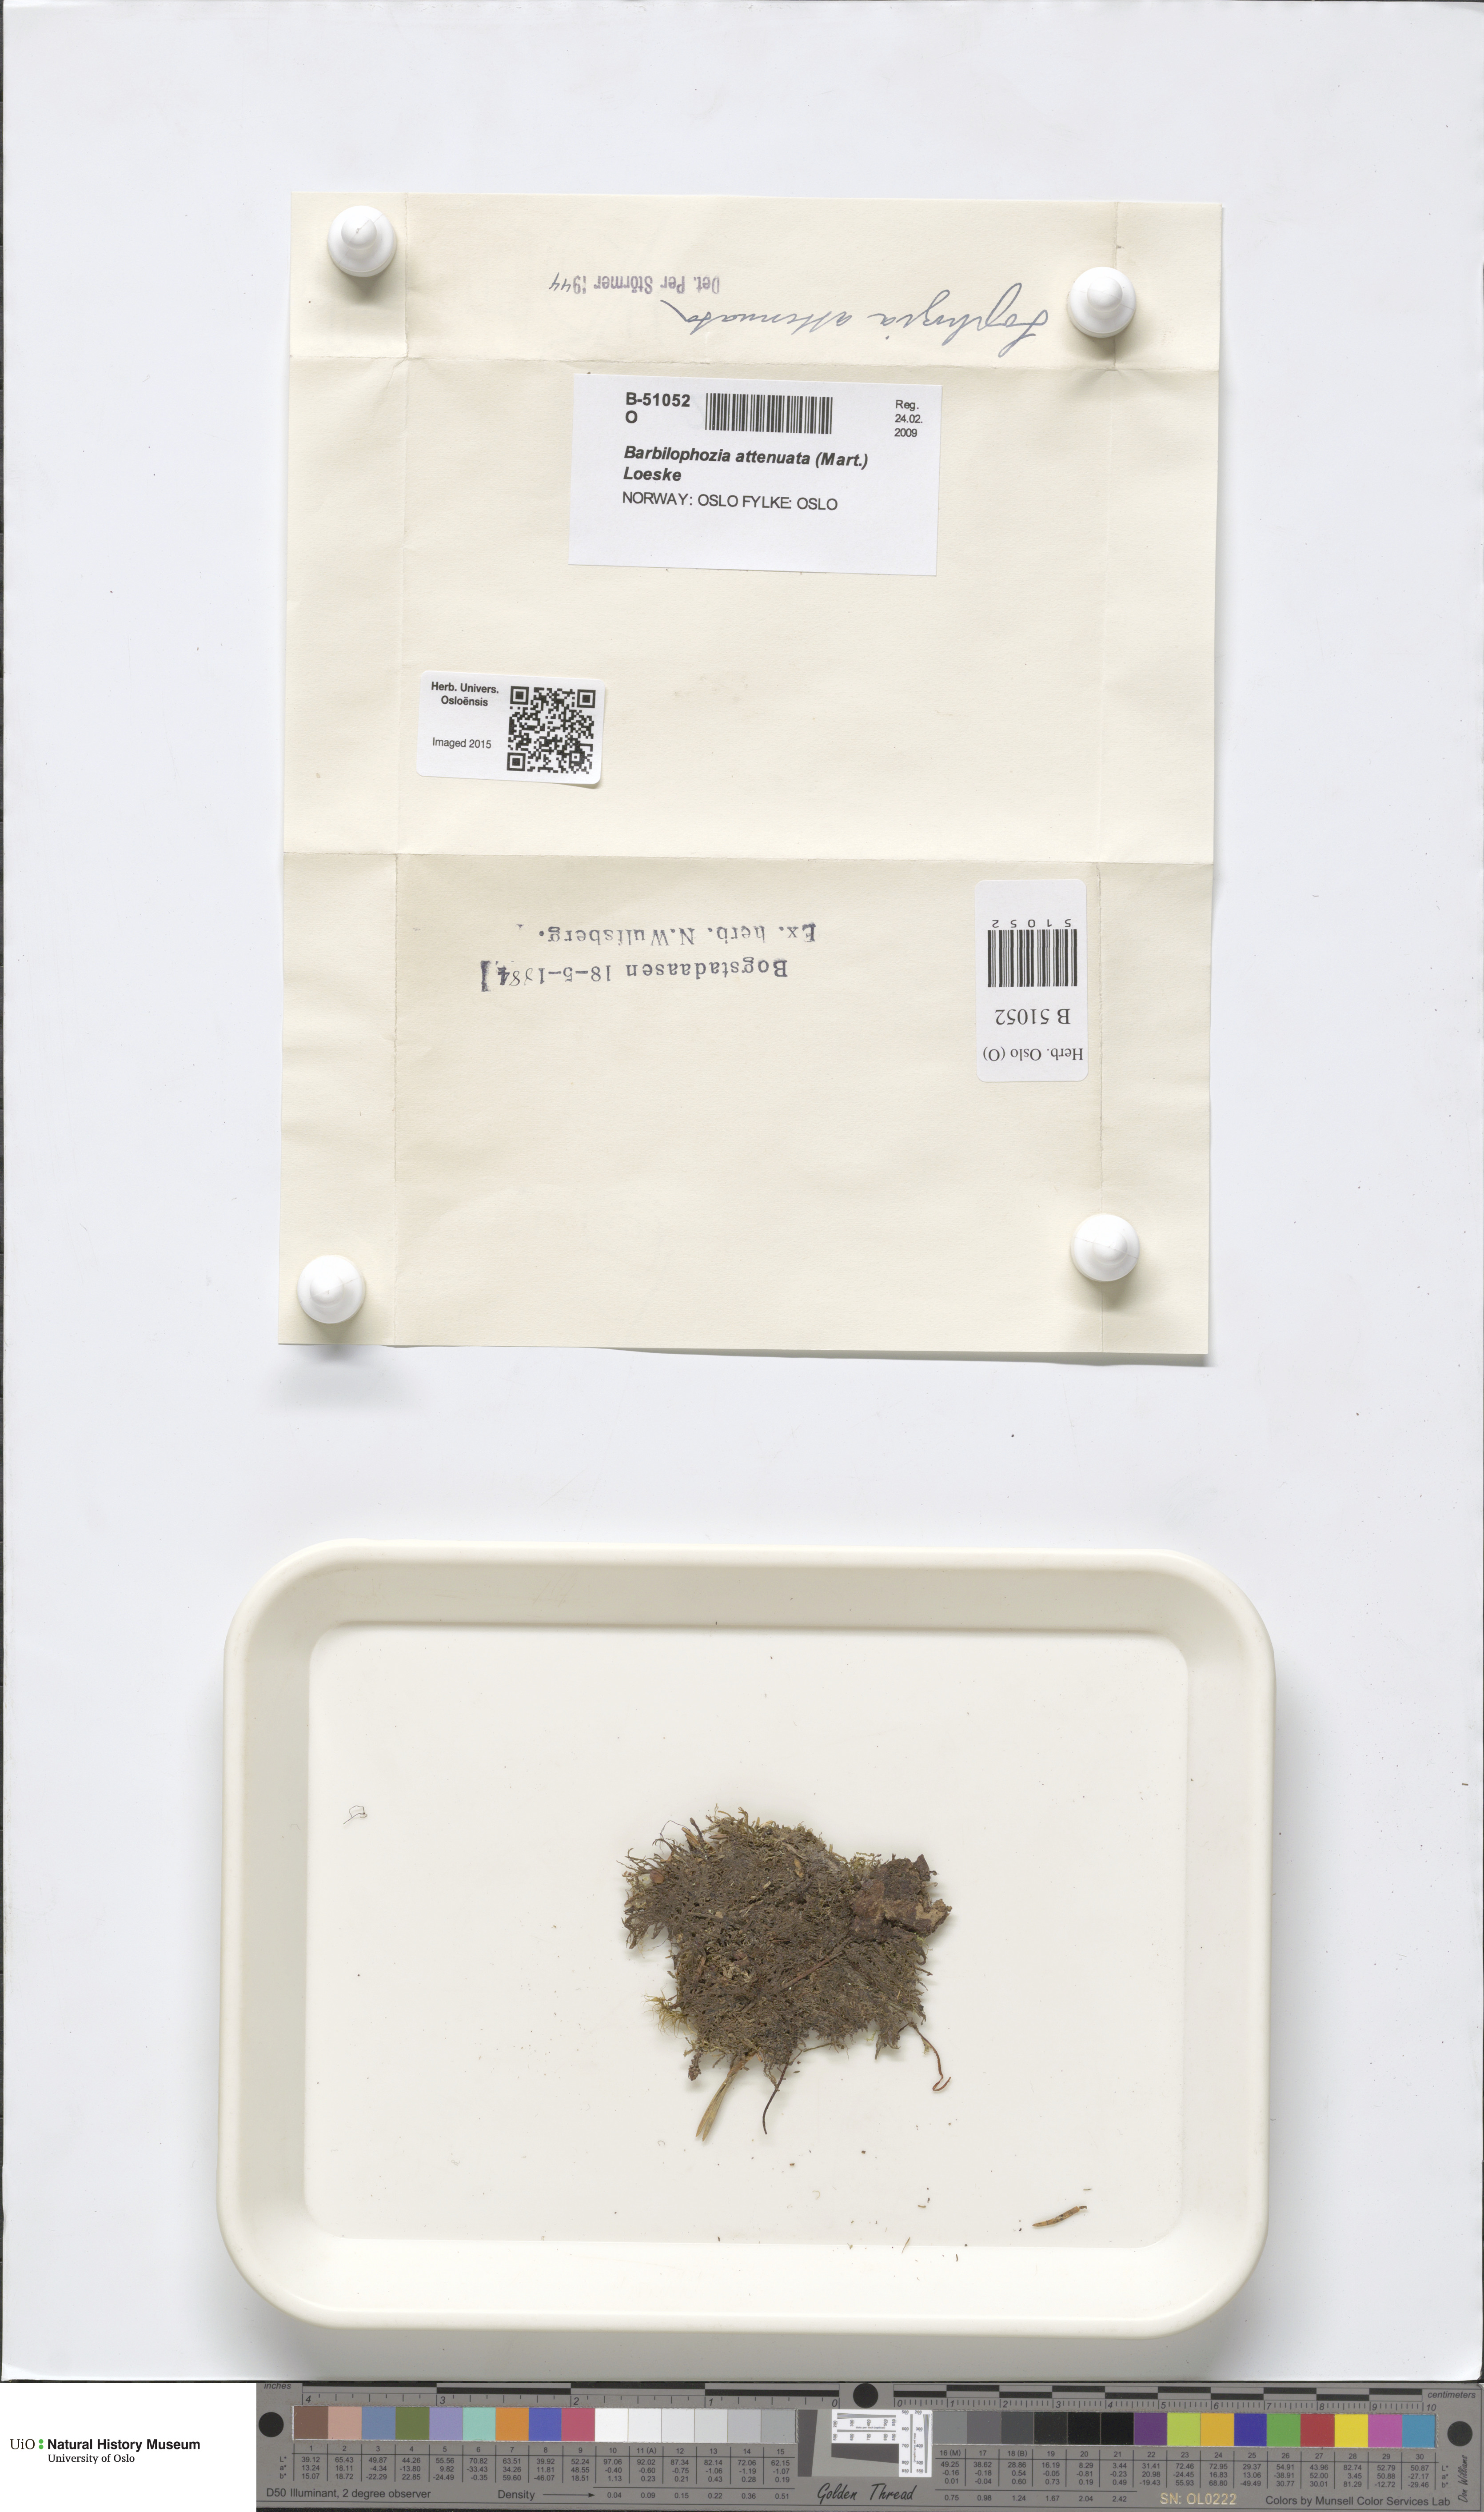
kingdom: Plantae
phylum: Marchantiophyta
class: Jungermanniopsida
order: Jungermanniales
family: Anastrophyllaceae
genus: Neoorthocaulis
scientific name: Neoorthocaulis attenuatus
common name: Trunk pawwort
